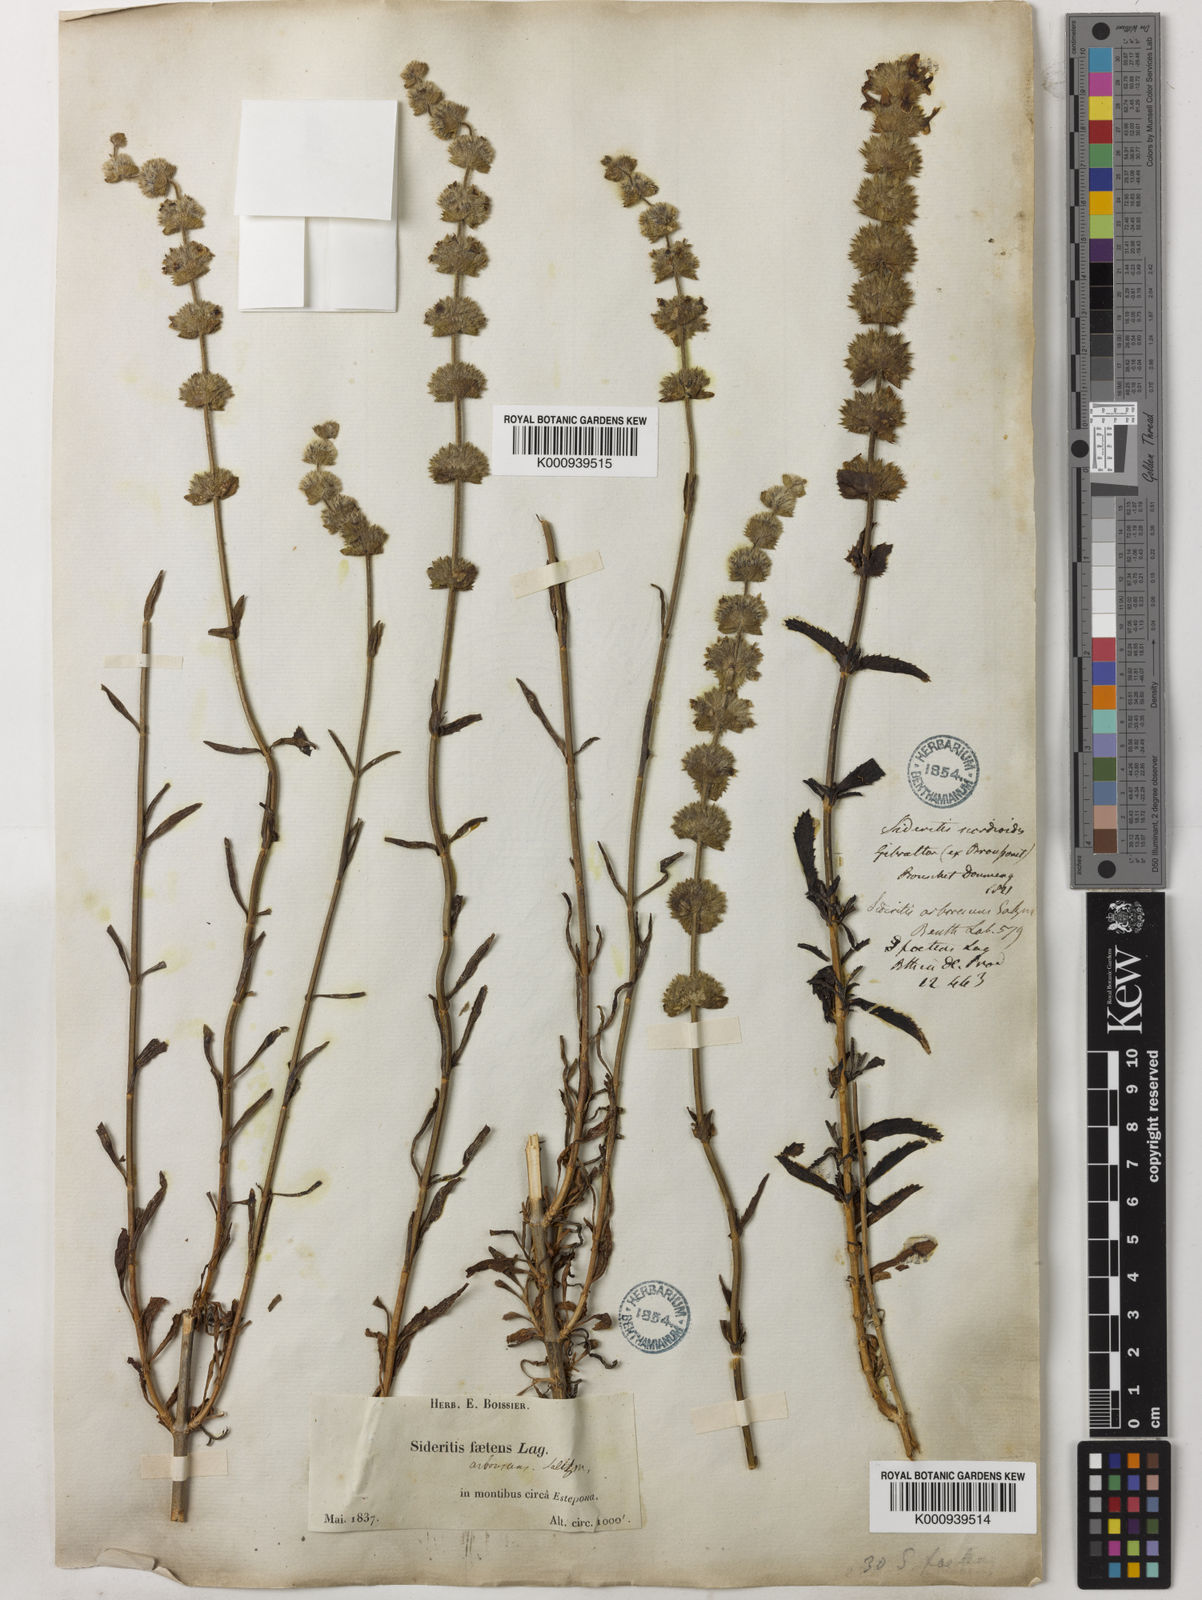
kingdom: Plantae
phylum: Tracheophyta
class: Magnoliopsida
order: Lamiales
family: Lamiaceae
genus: Sideritis
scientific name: Sideritis arborescens
